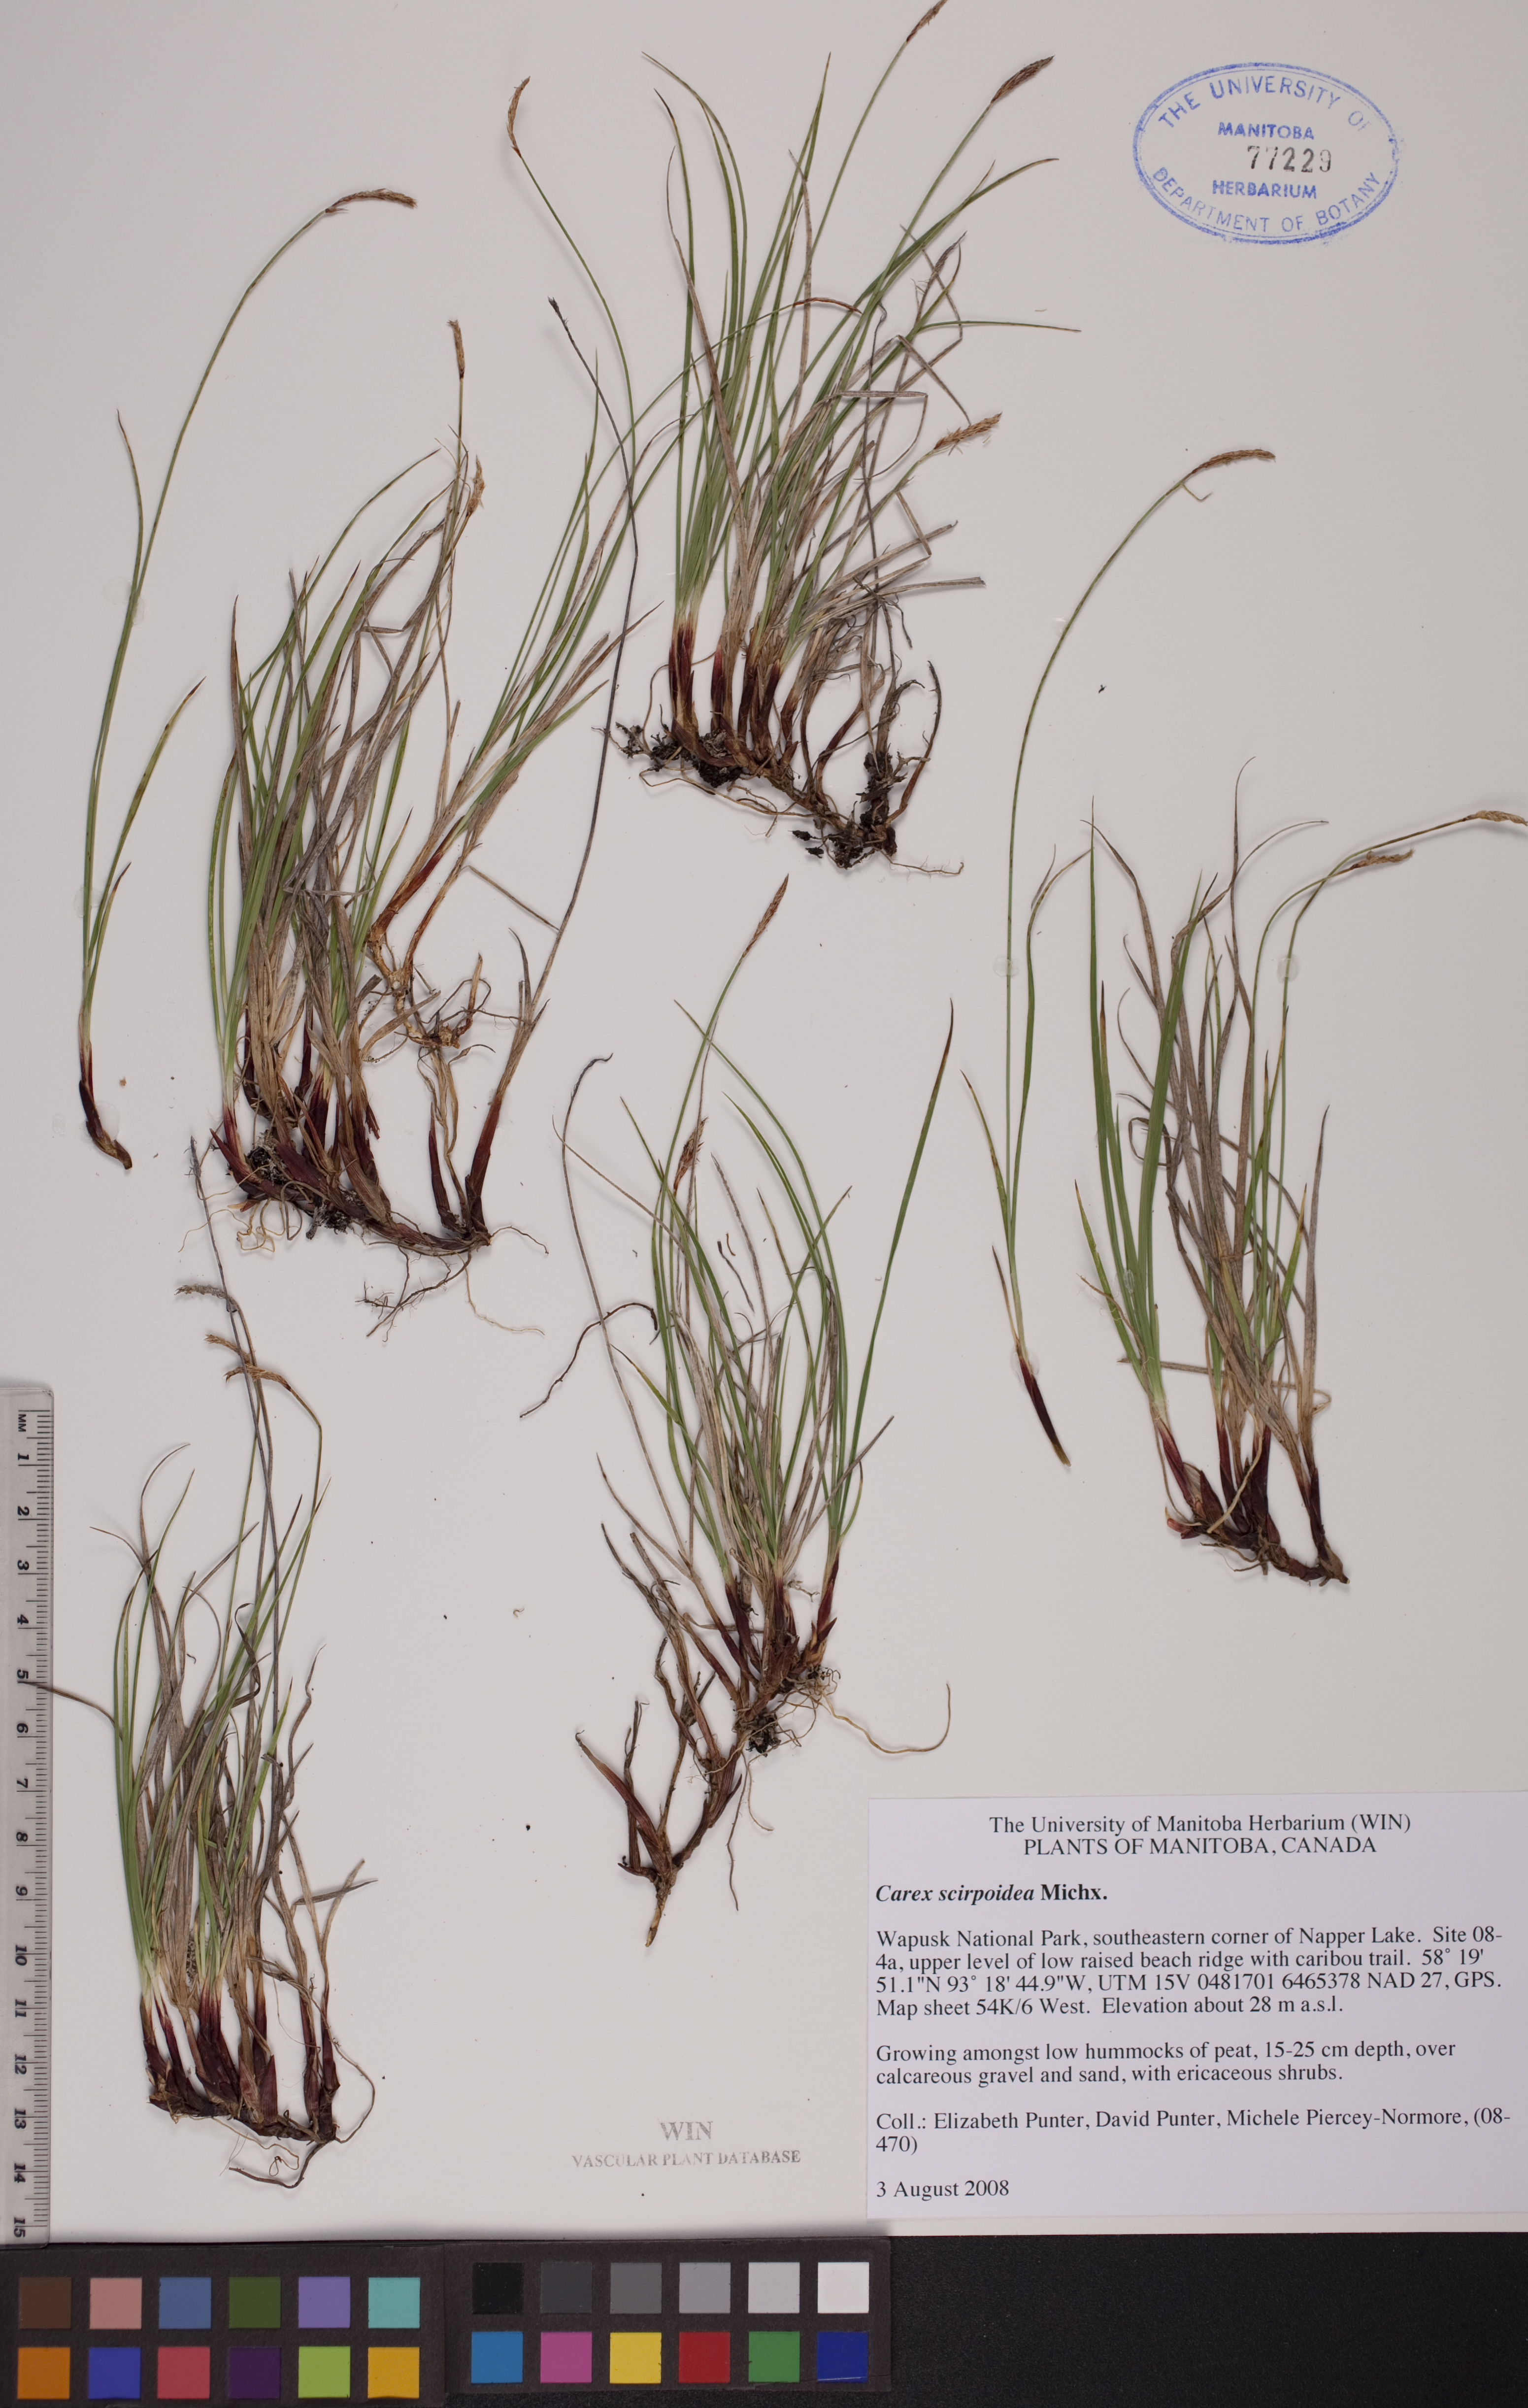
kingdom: Plantae
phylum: Tracheophyta
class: Liliopsida
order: Poales
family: Cyperaceae
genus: Carex
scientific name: Carex scirpoidea
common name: Canada single-spike sedge
